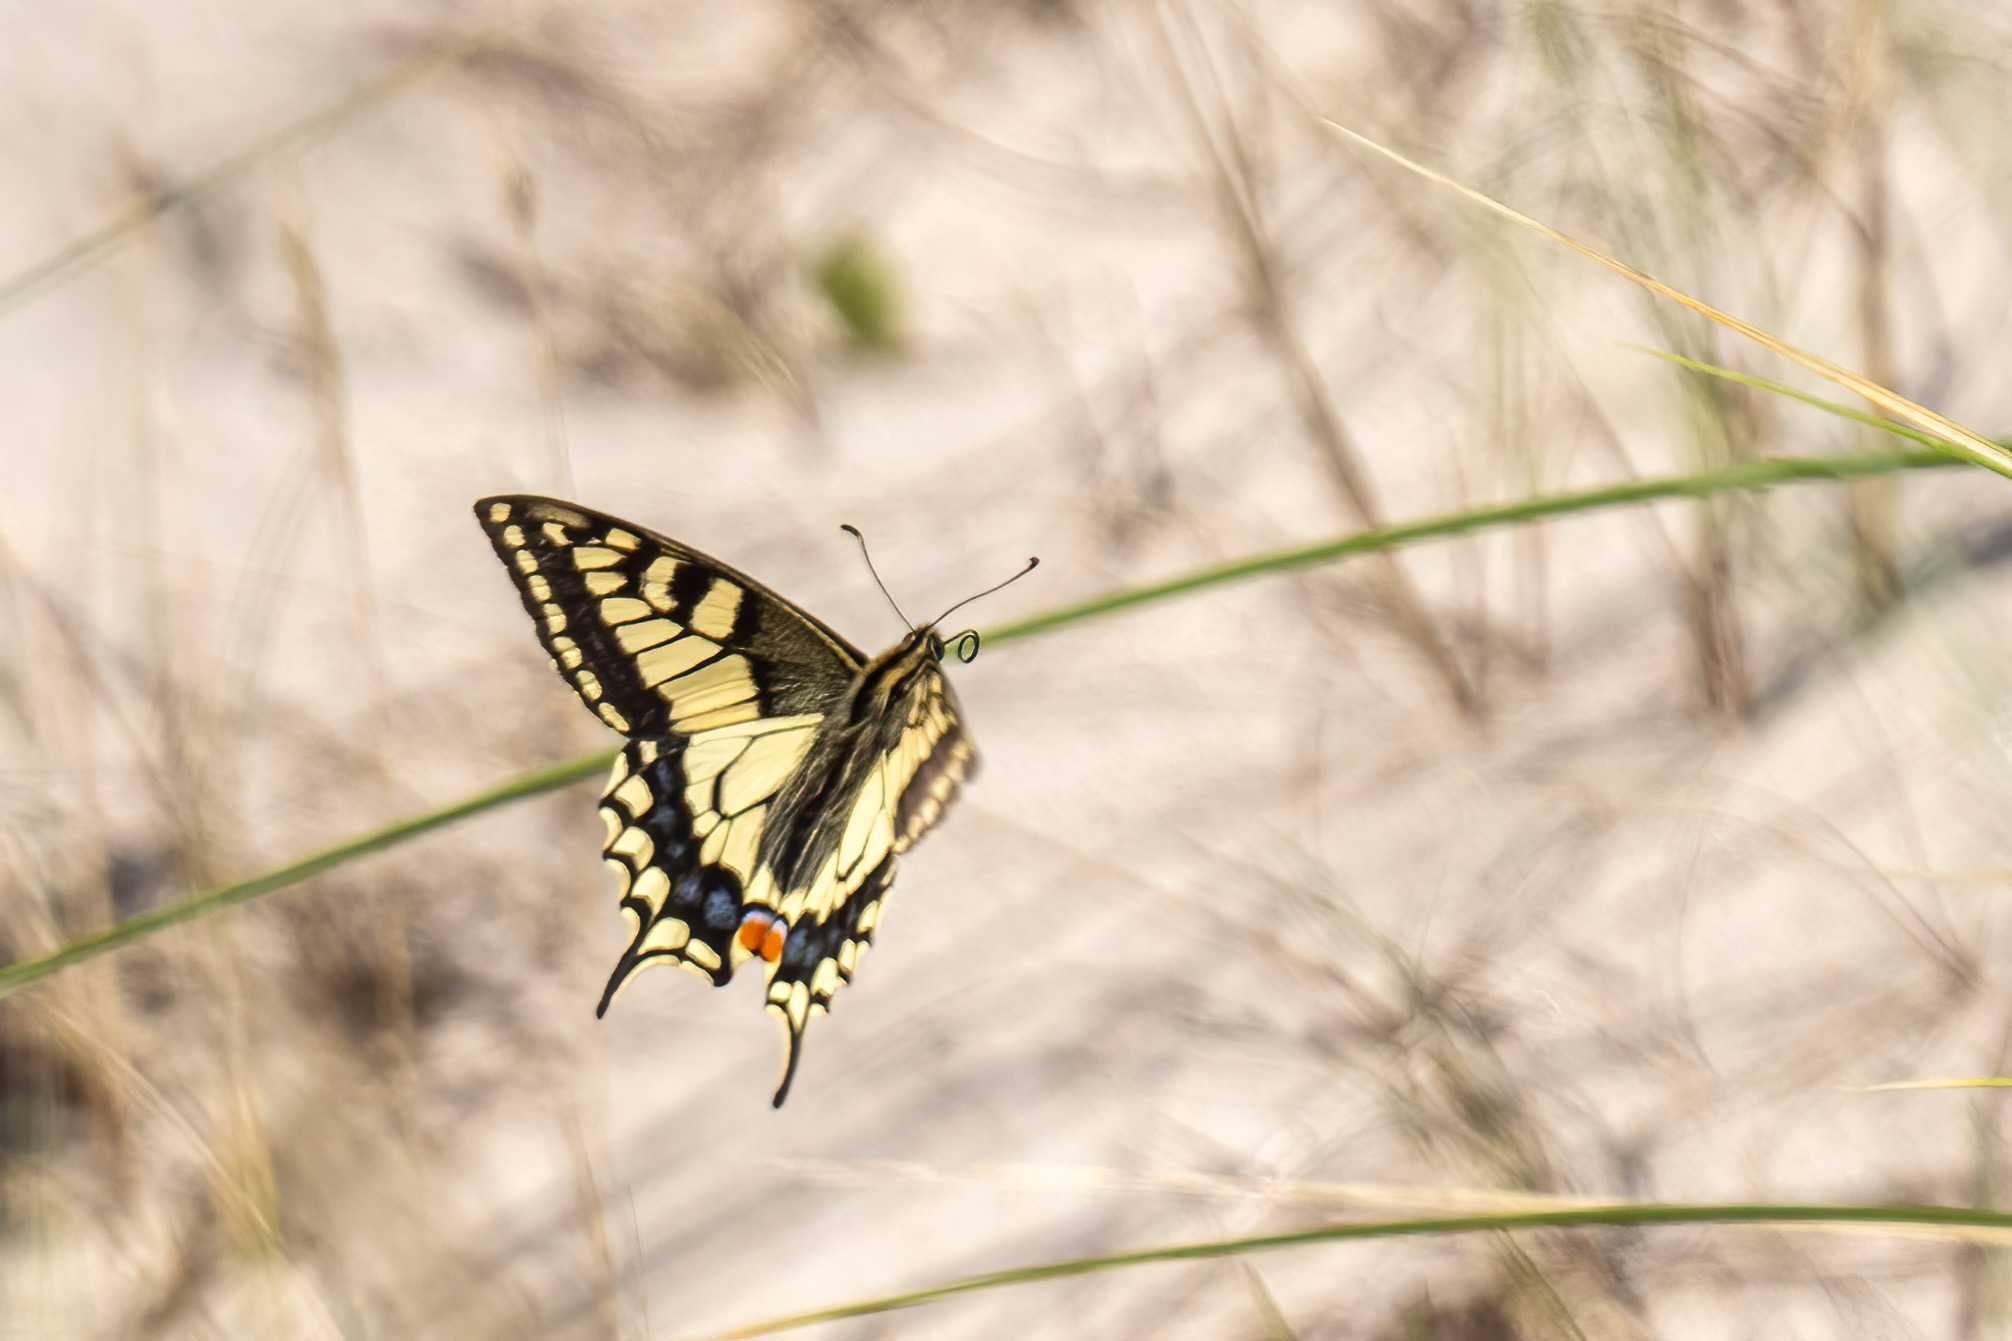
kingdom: Animalia
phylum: Arthropoda
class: Insecta
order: Lepidoptera
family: Papilionidae
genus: Papilio
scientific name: Papilio machaon
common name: Svalehale
